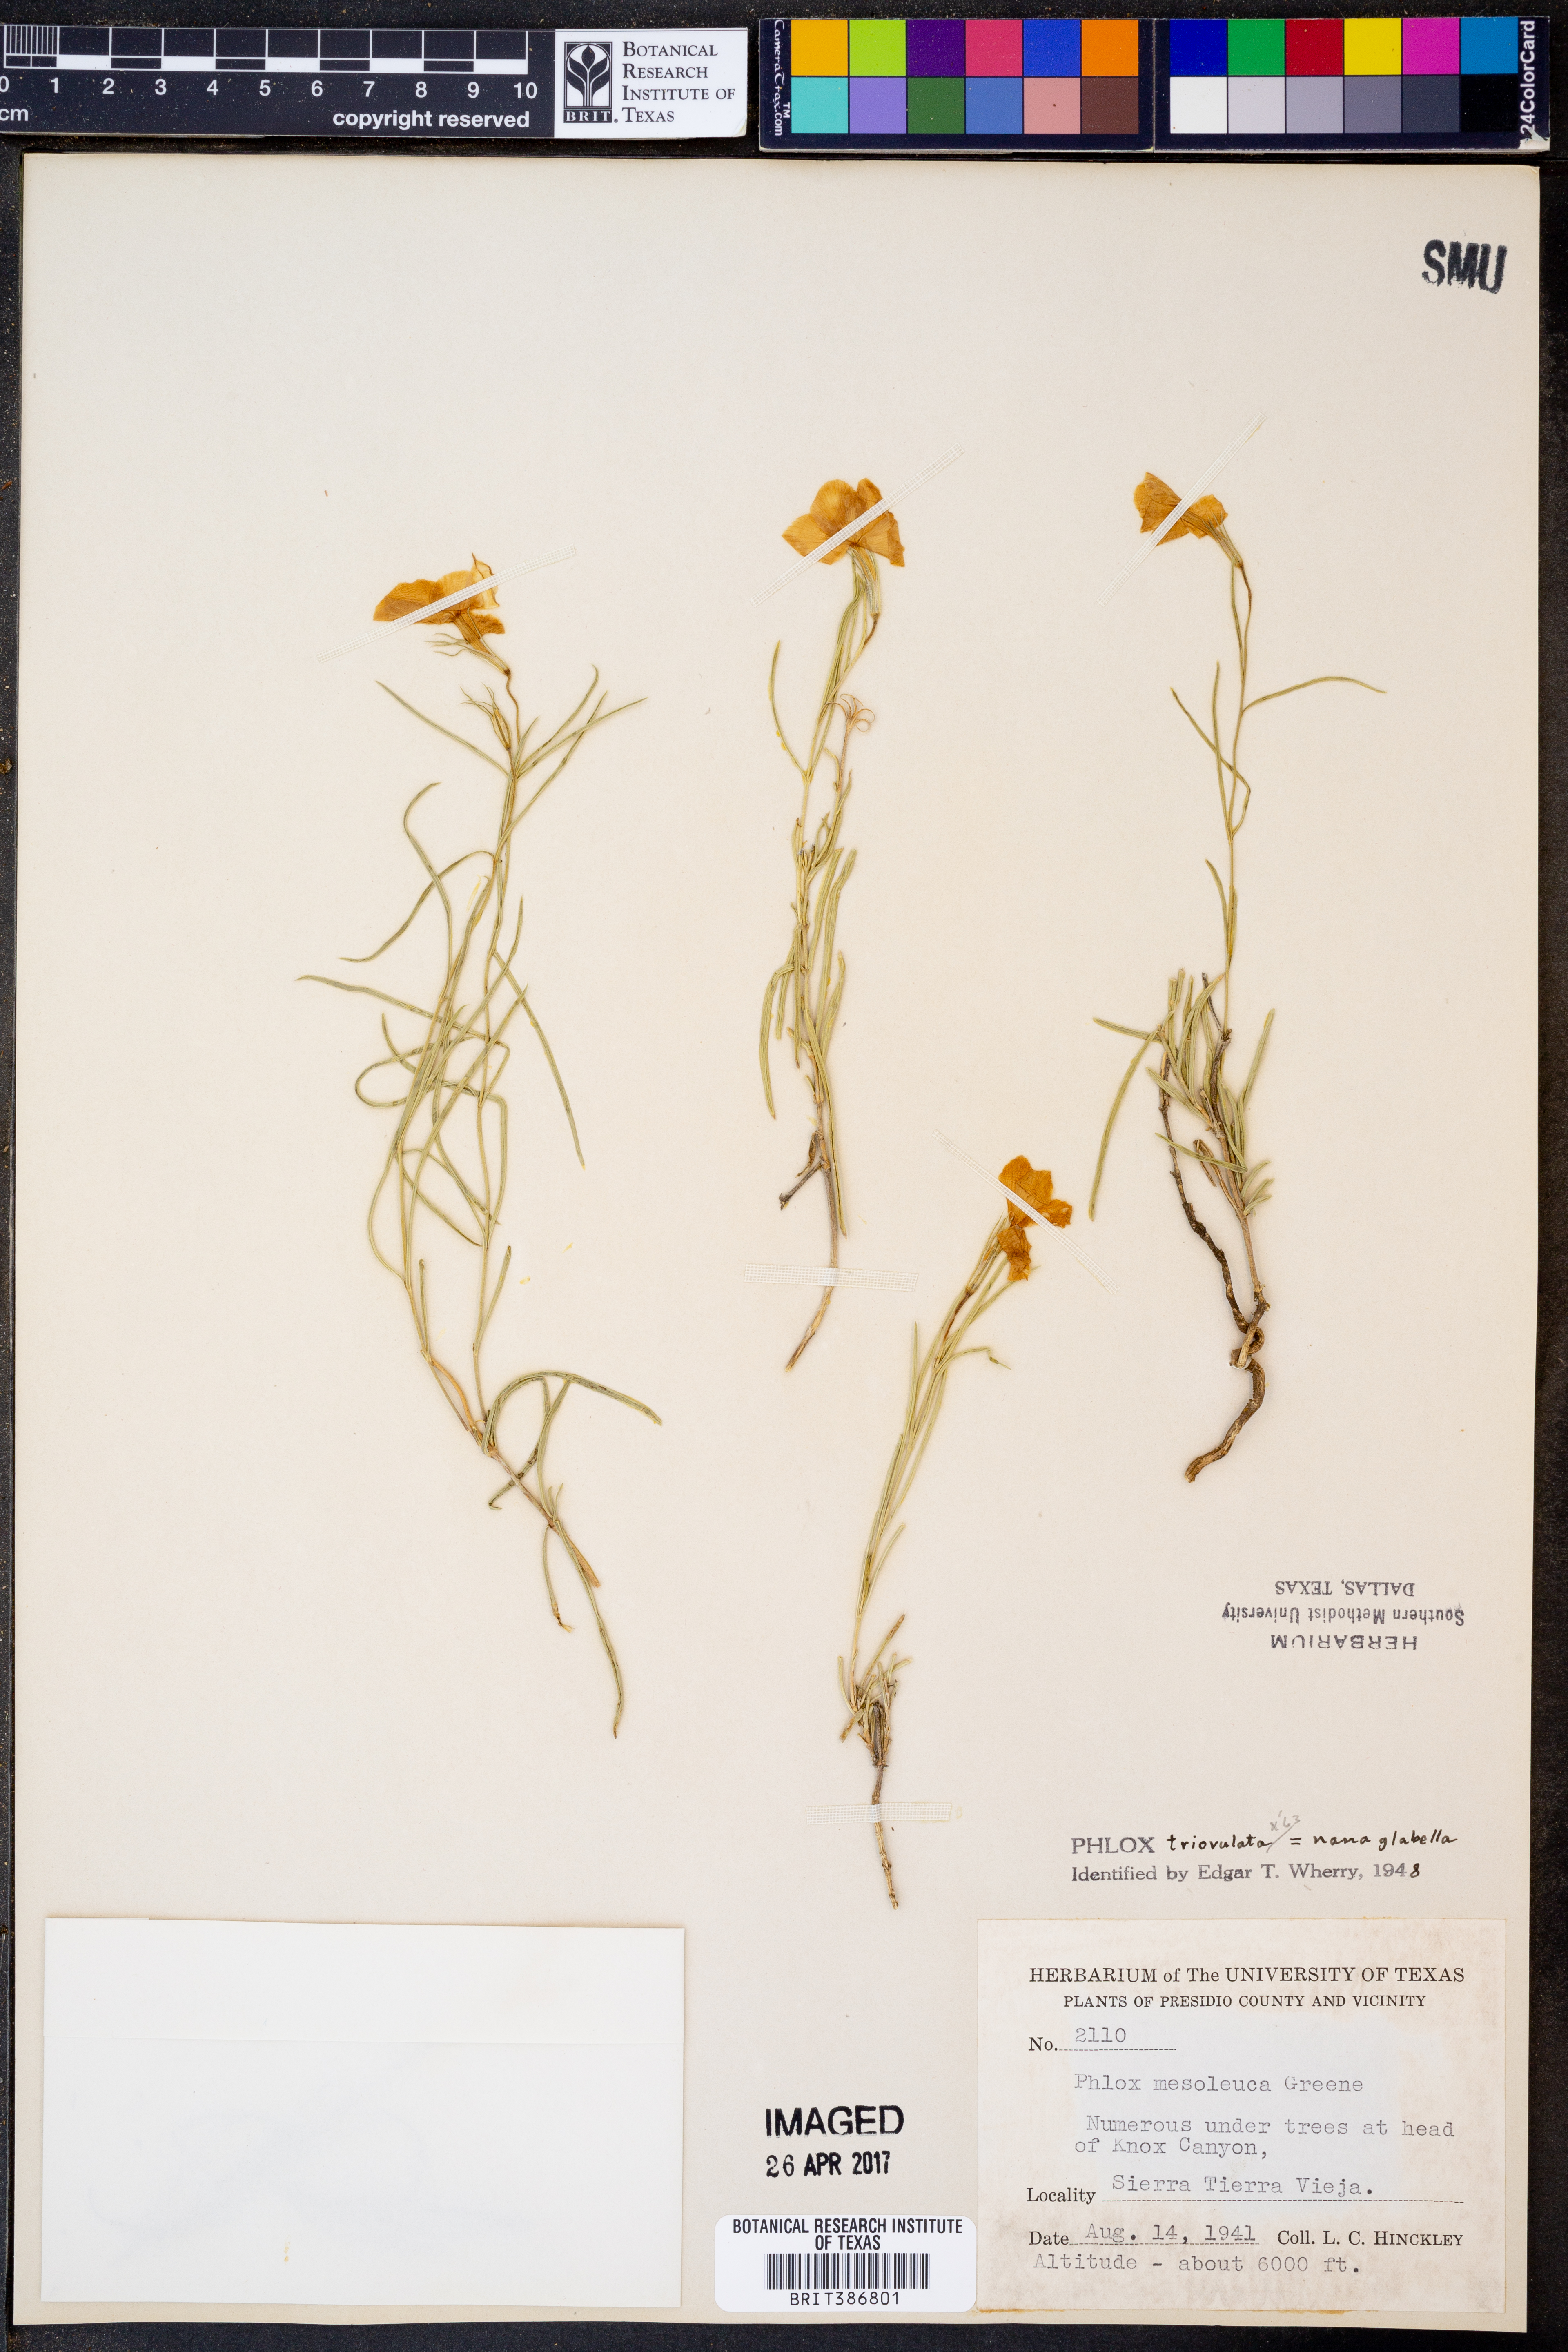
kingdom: Plantae
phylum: Tracheophyta
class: Magnoliopsida
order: Ericales
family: Polemoniaceae
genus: Phlox
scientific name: Phlox triovulata
